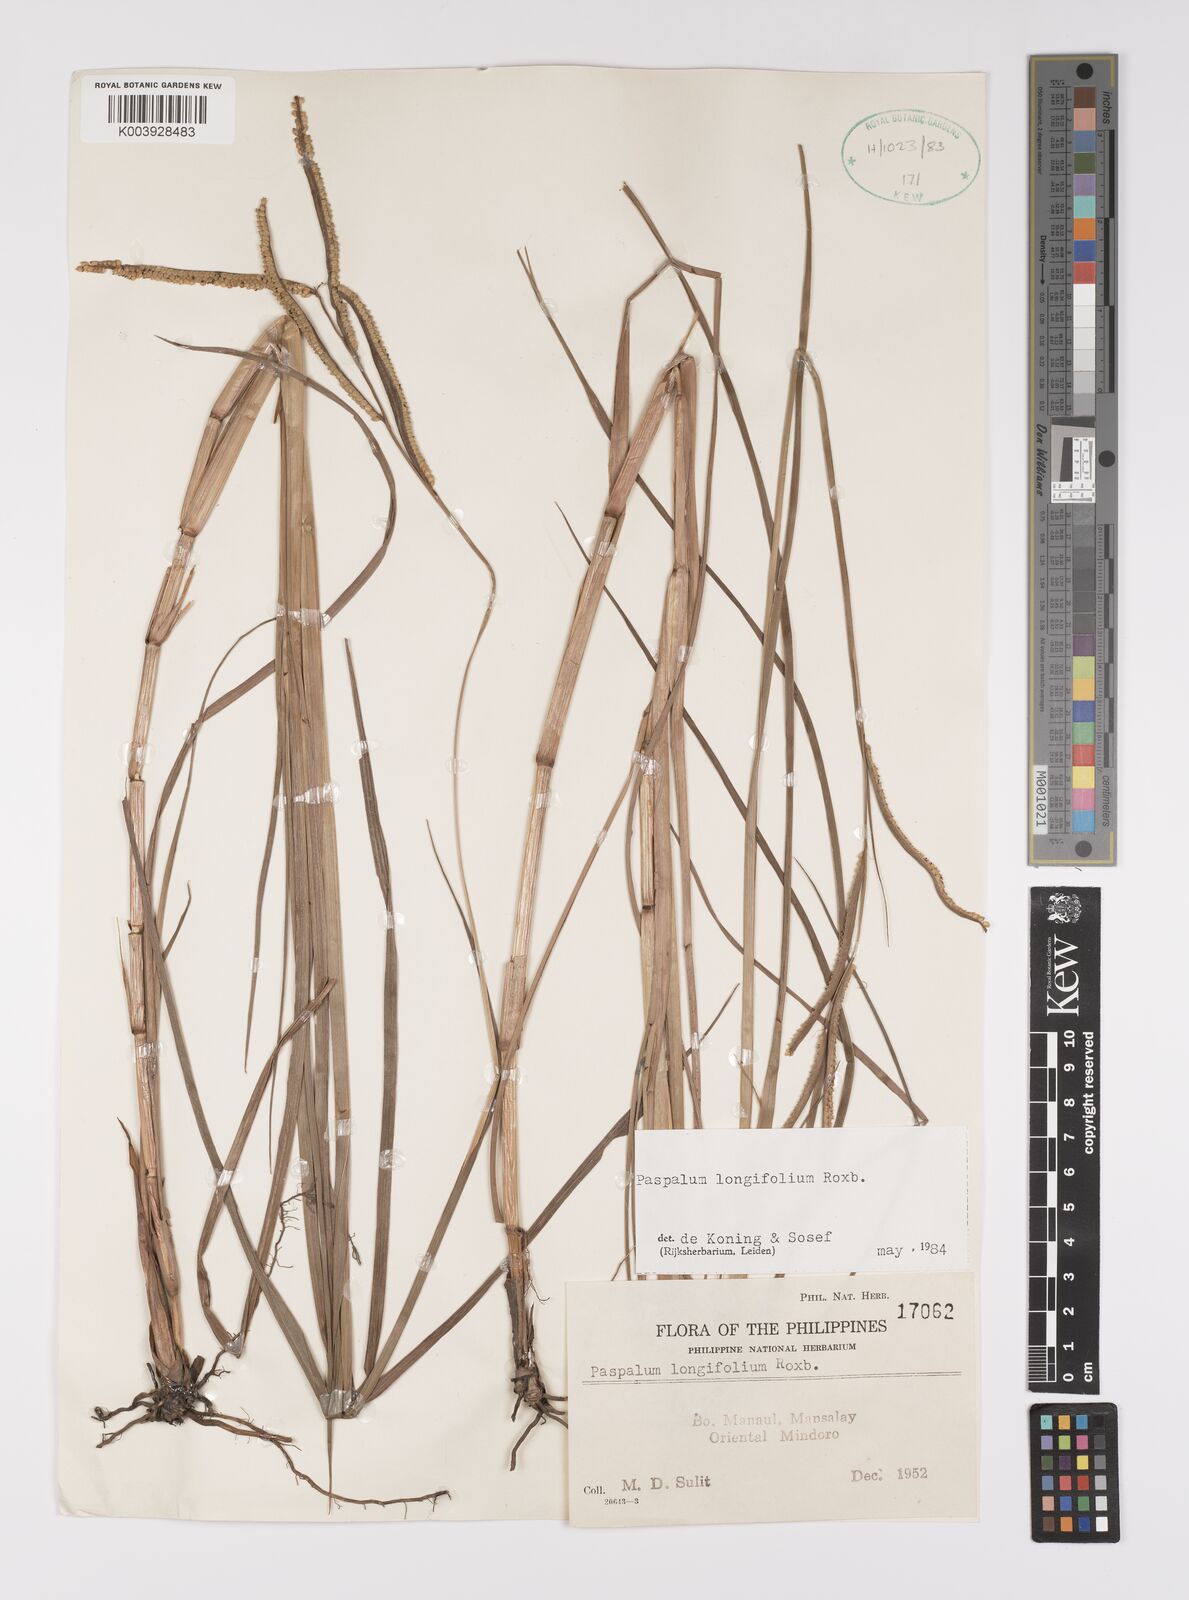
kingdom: Plantae
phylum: Tracheophyta
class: Liliopsida
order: Poales
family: Poaceae
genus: Paspalum
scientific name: Paspalum sumatrense
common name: Long-leaved paspalum
